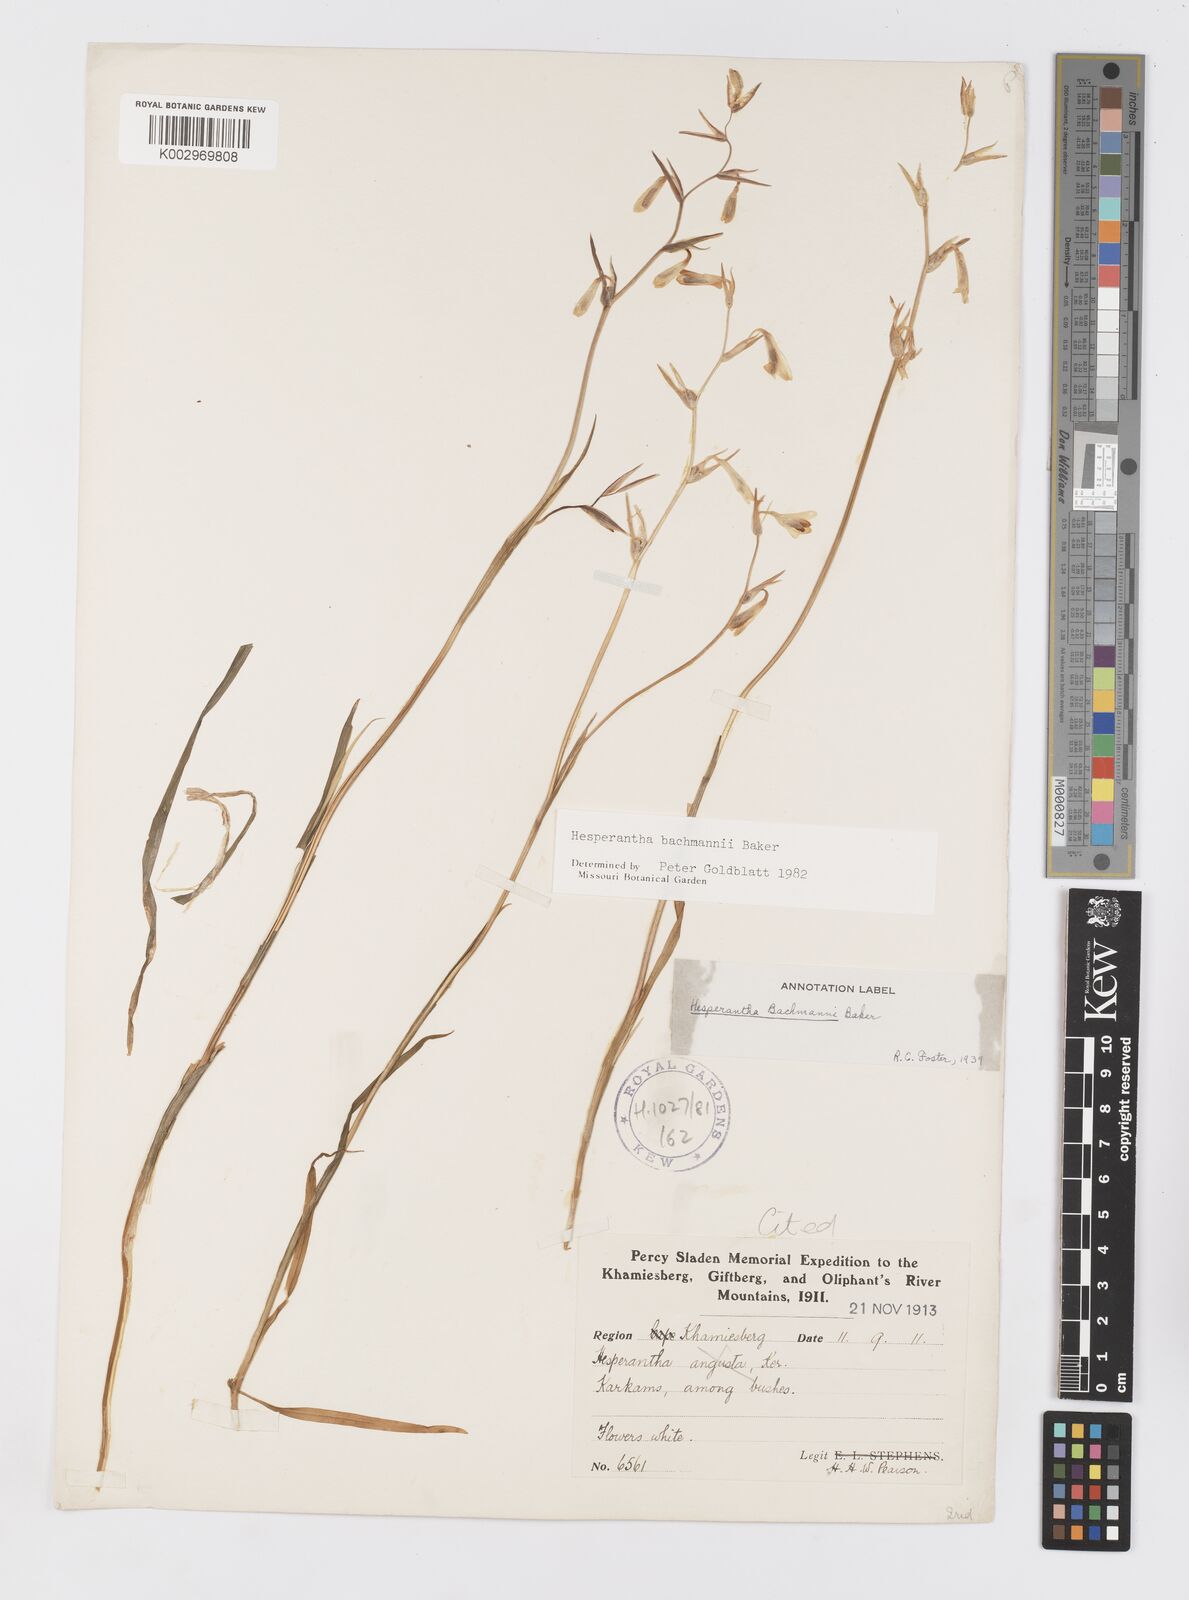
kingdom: Plantae
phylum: Tracheophyta
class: Liliopsida
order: Asparagales
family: Iridaceae
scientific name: Iridaceae
